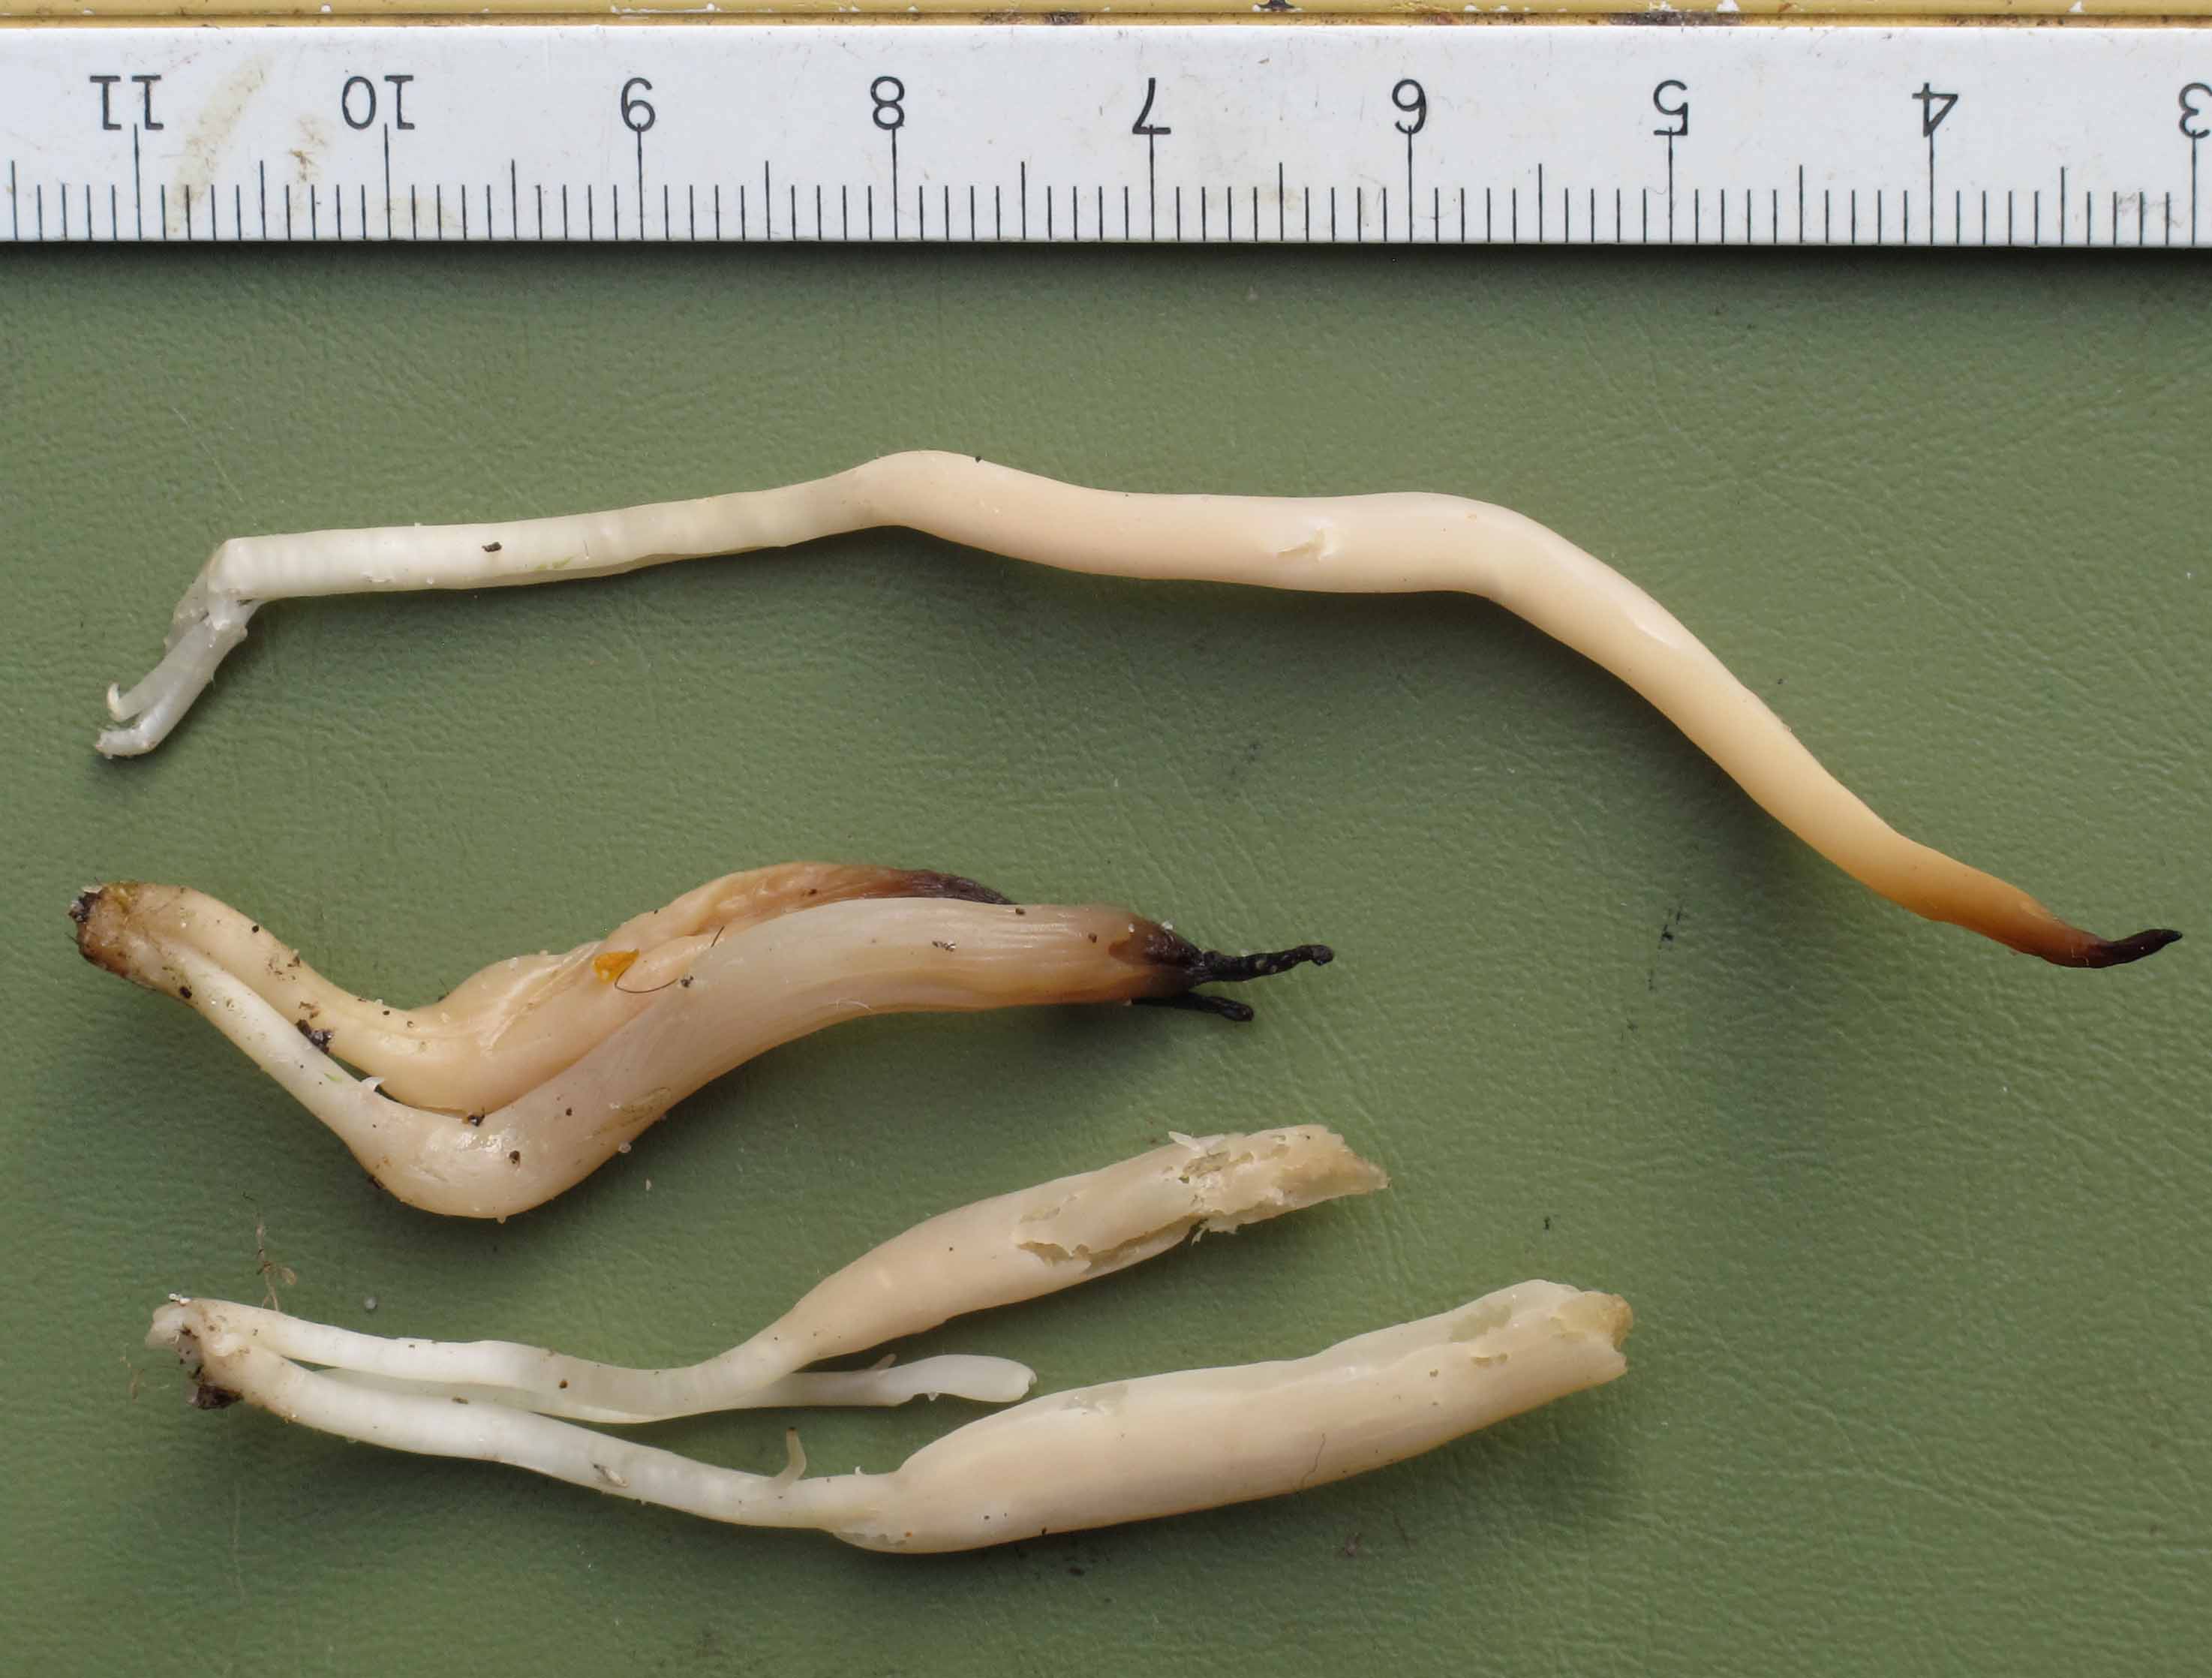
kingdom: Fungi
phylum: Basidiomycota
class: Agaricomycetes
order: Agaricales
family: Clavariaceae
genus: Clavaria
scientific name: Clavaria falcata
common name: hvid køllesvamp
